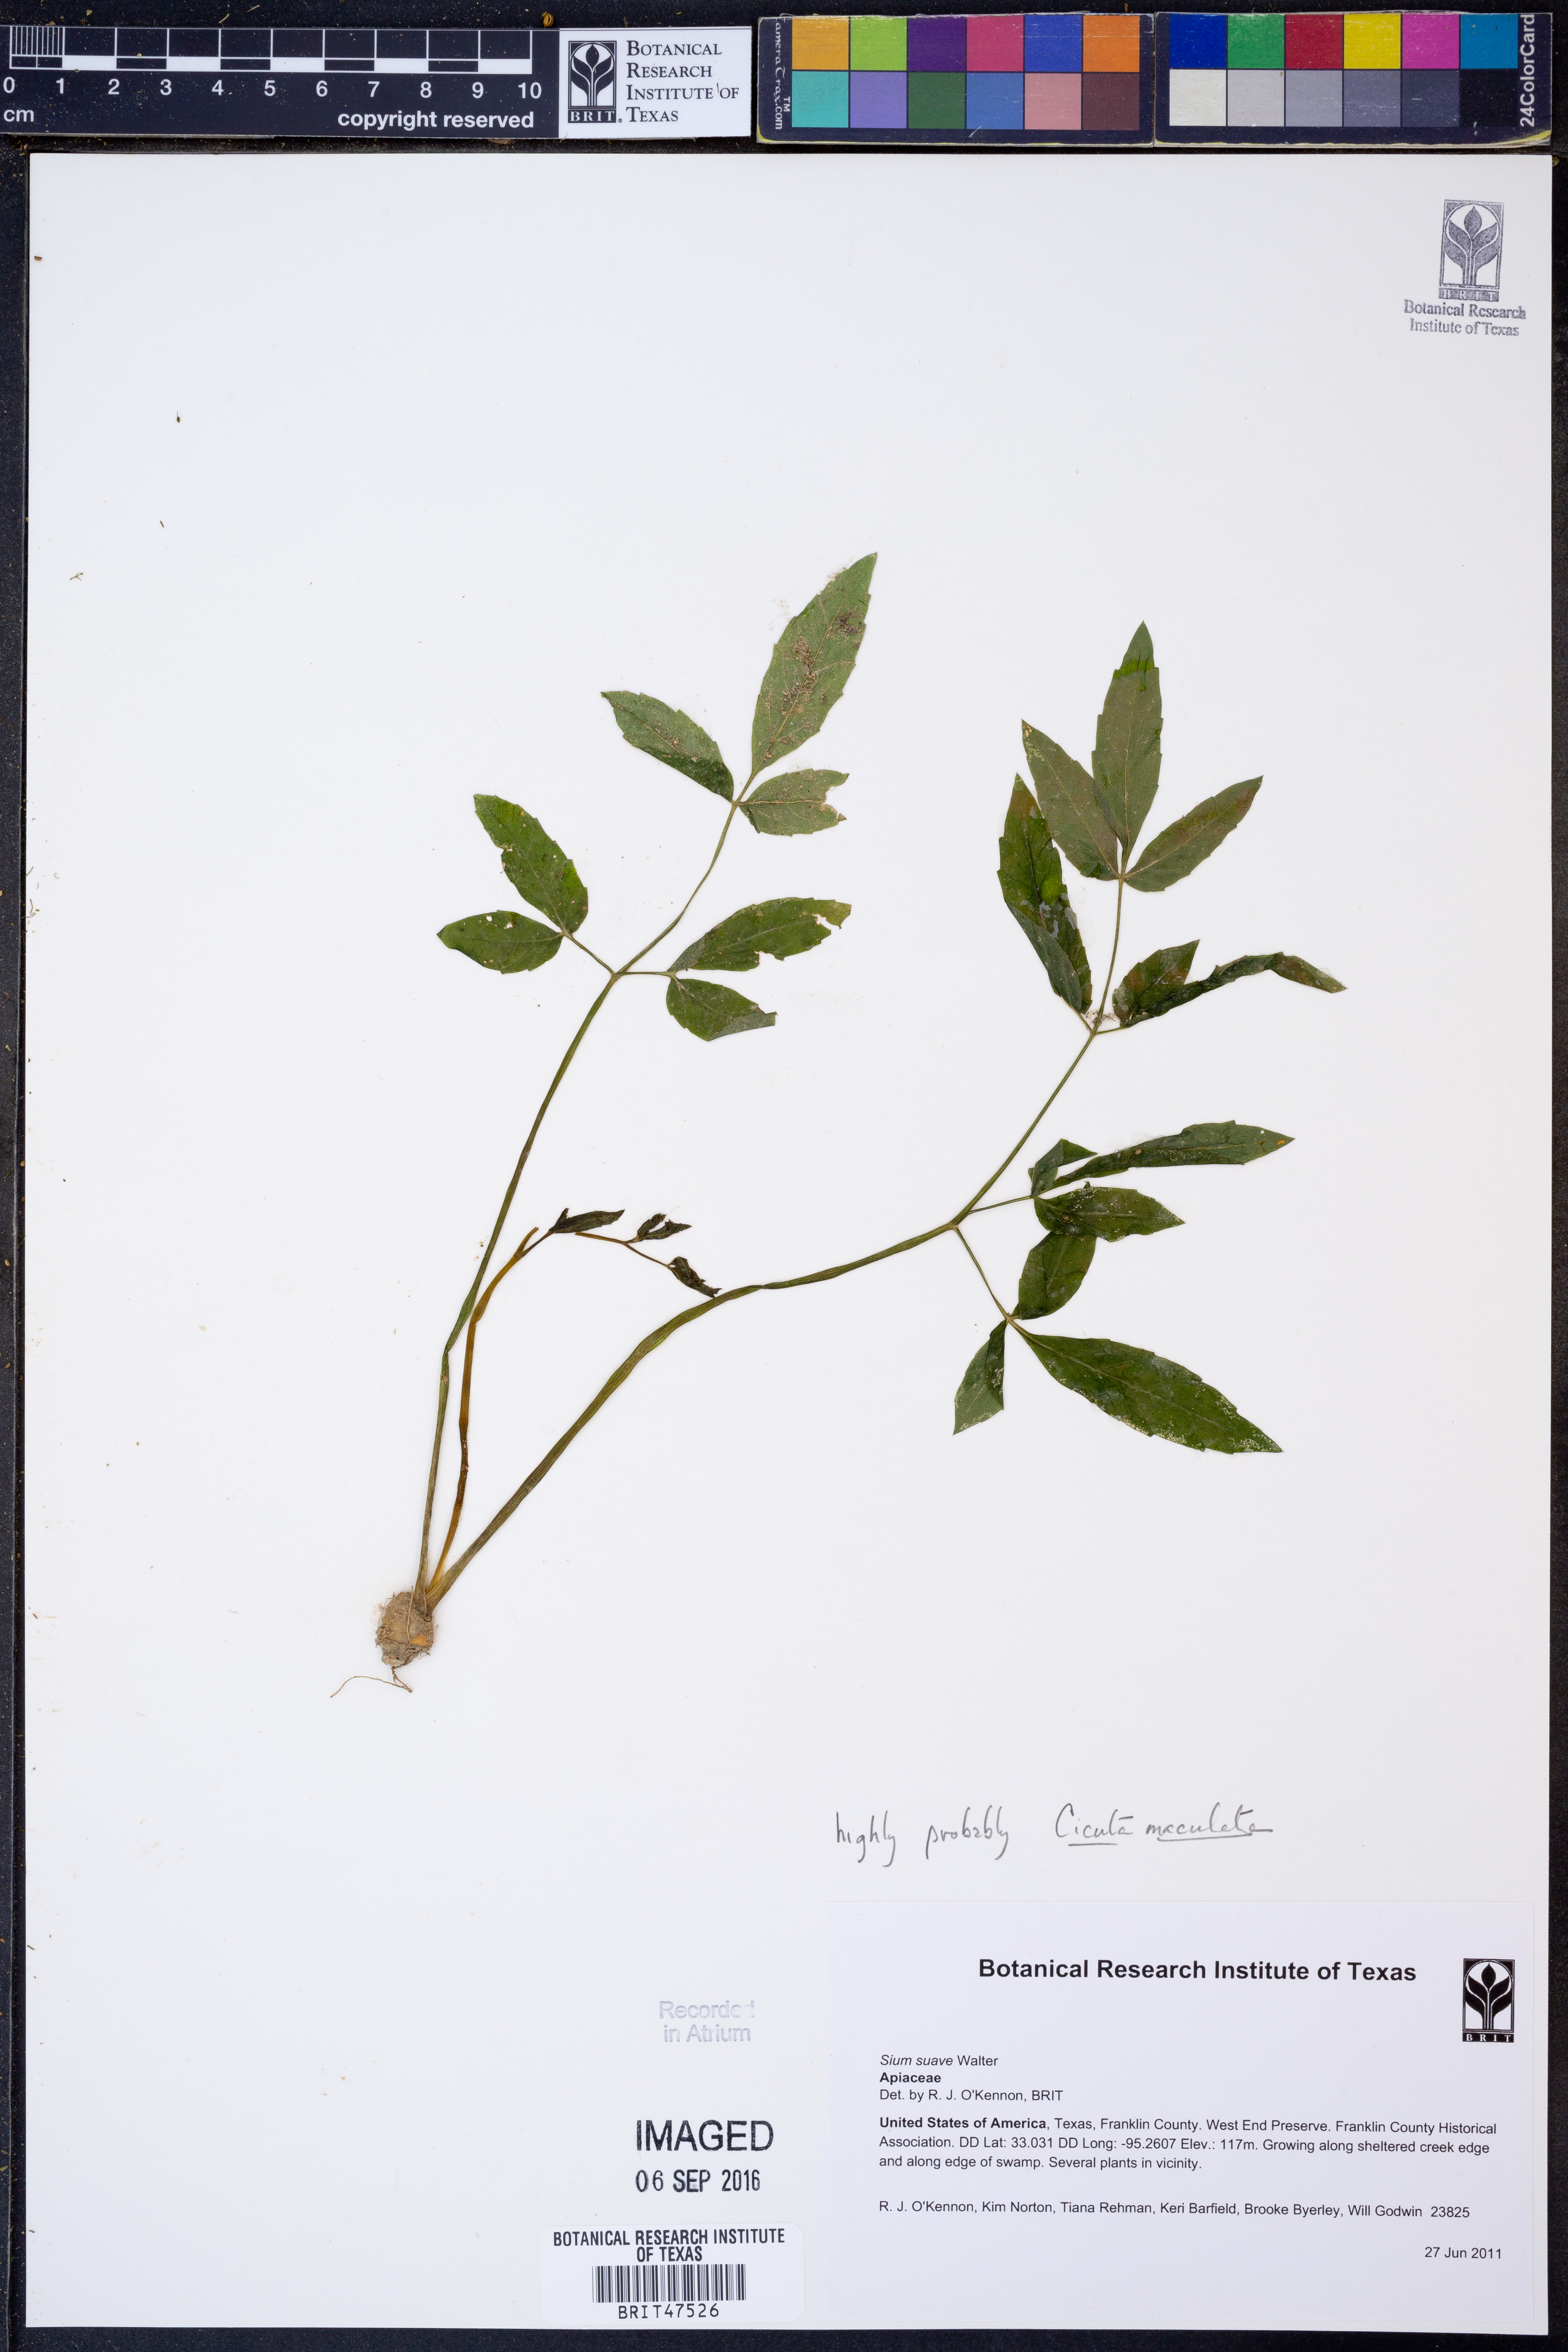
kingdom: Plantae
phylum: Tracheophyta
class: Magnoliopsida
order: Apiales
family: Apiaceae
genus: Sium
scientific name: Sium suave
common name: Hemlock water-parsnip
